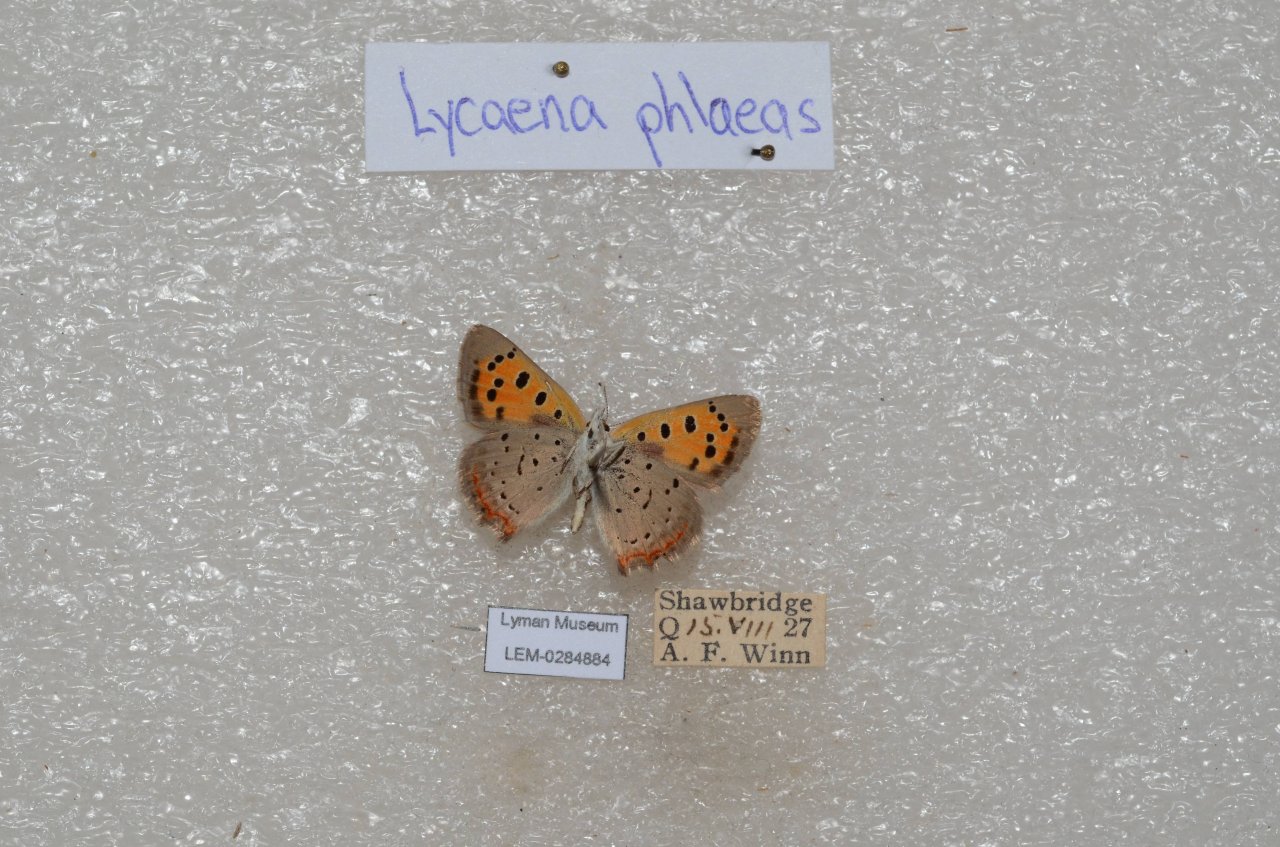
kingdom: Animalia
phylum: Arthropoda
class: Insecta
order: Lepidoptera
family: Lycaenidae
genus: Lycaena
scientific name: Lycaena phlaeas
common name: American Copper
